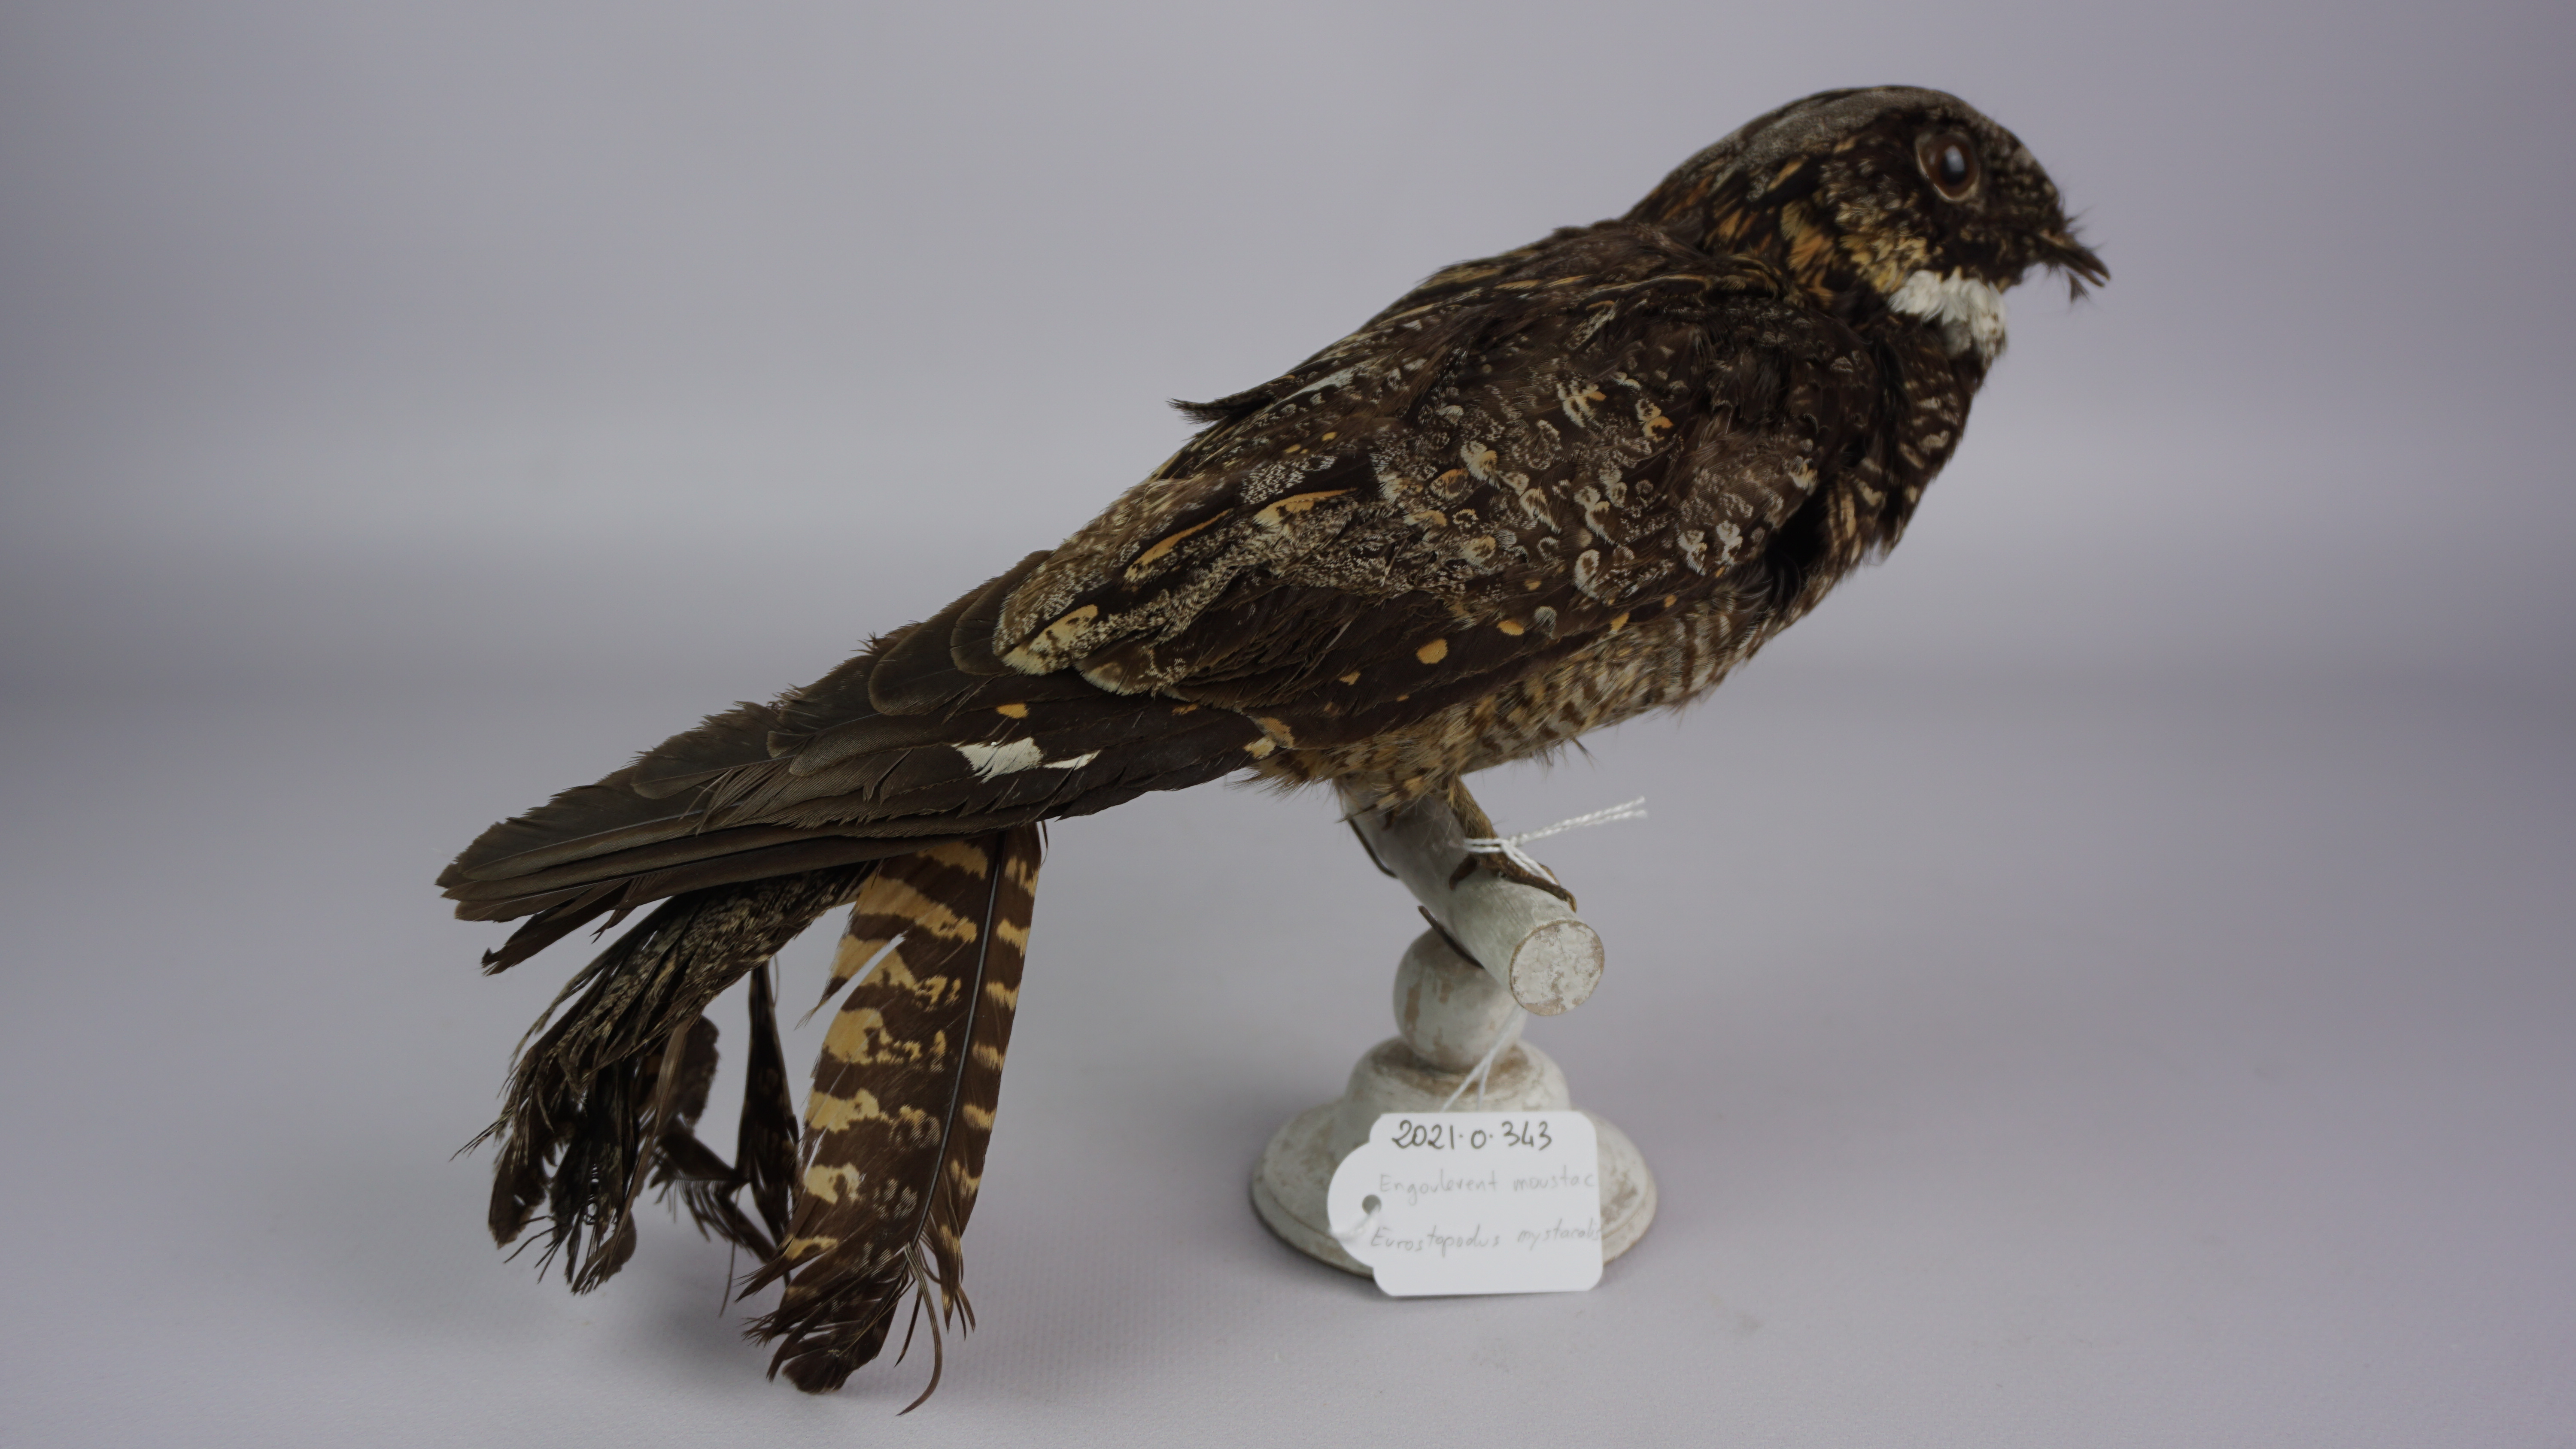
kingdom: Animalia
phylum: Chordata
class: Aves
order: Caprimulgiformes
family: Caprimulgidae
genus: Eurostopodus
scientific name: Eurostopodus mystacalis
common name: White-throated nightjar
